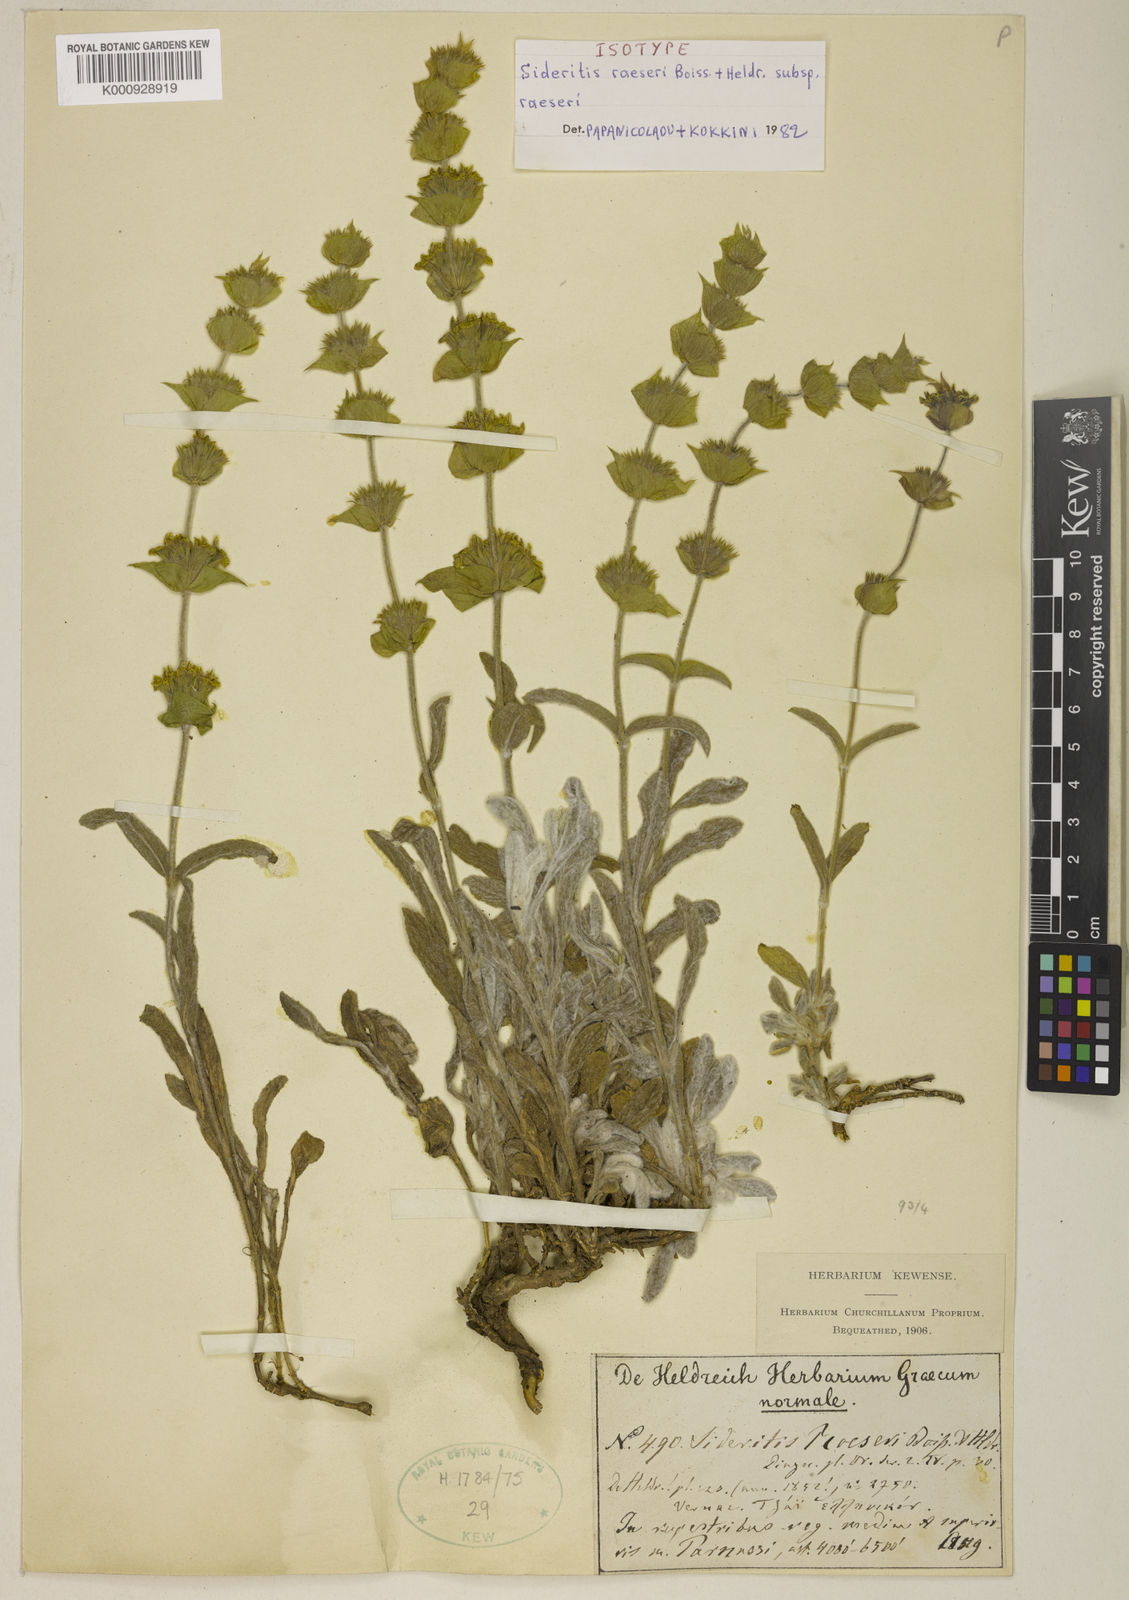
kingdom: Plantae
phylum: Tracheophyta
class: Magnoliopsida
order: Lamiales
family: Lamiaceae
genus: Sideritis
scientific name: Sideritis syriaca
